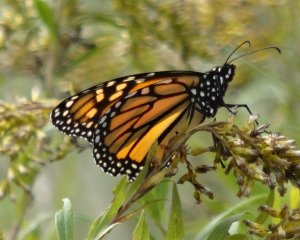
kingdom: Animalia
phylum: Arthropoda
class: Insecta
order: Lepidoptera
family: Nymphalidae
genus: Danaus
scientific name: Danaus plexippus
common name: Monarch
